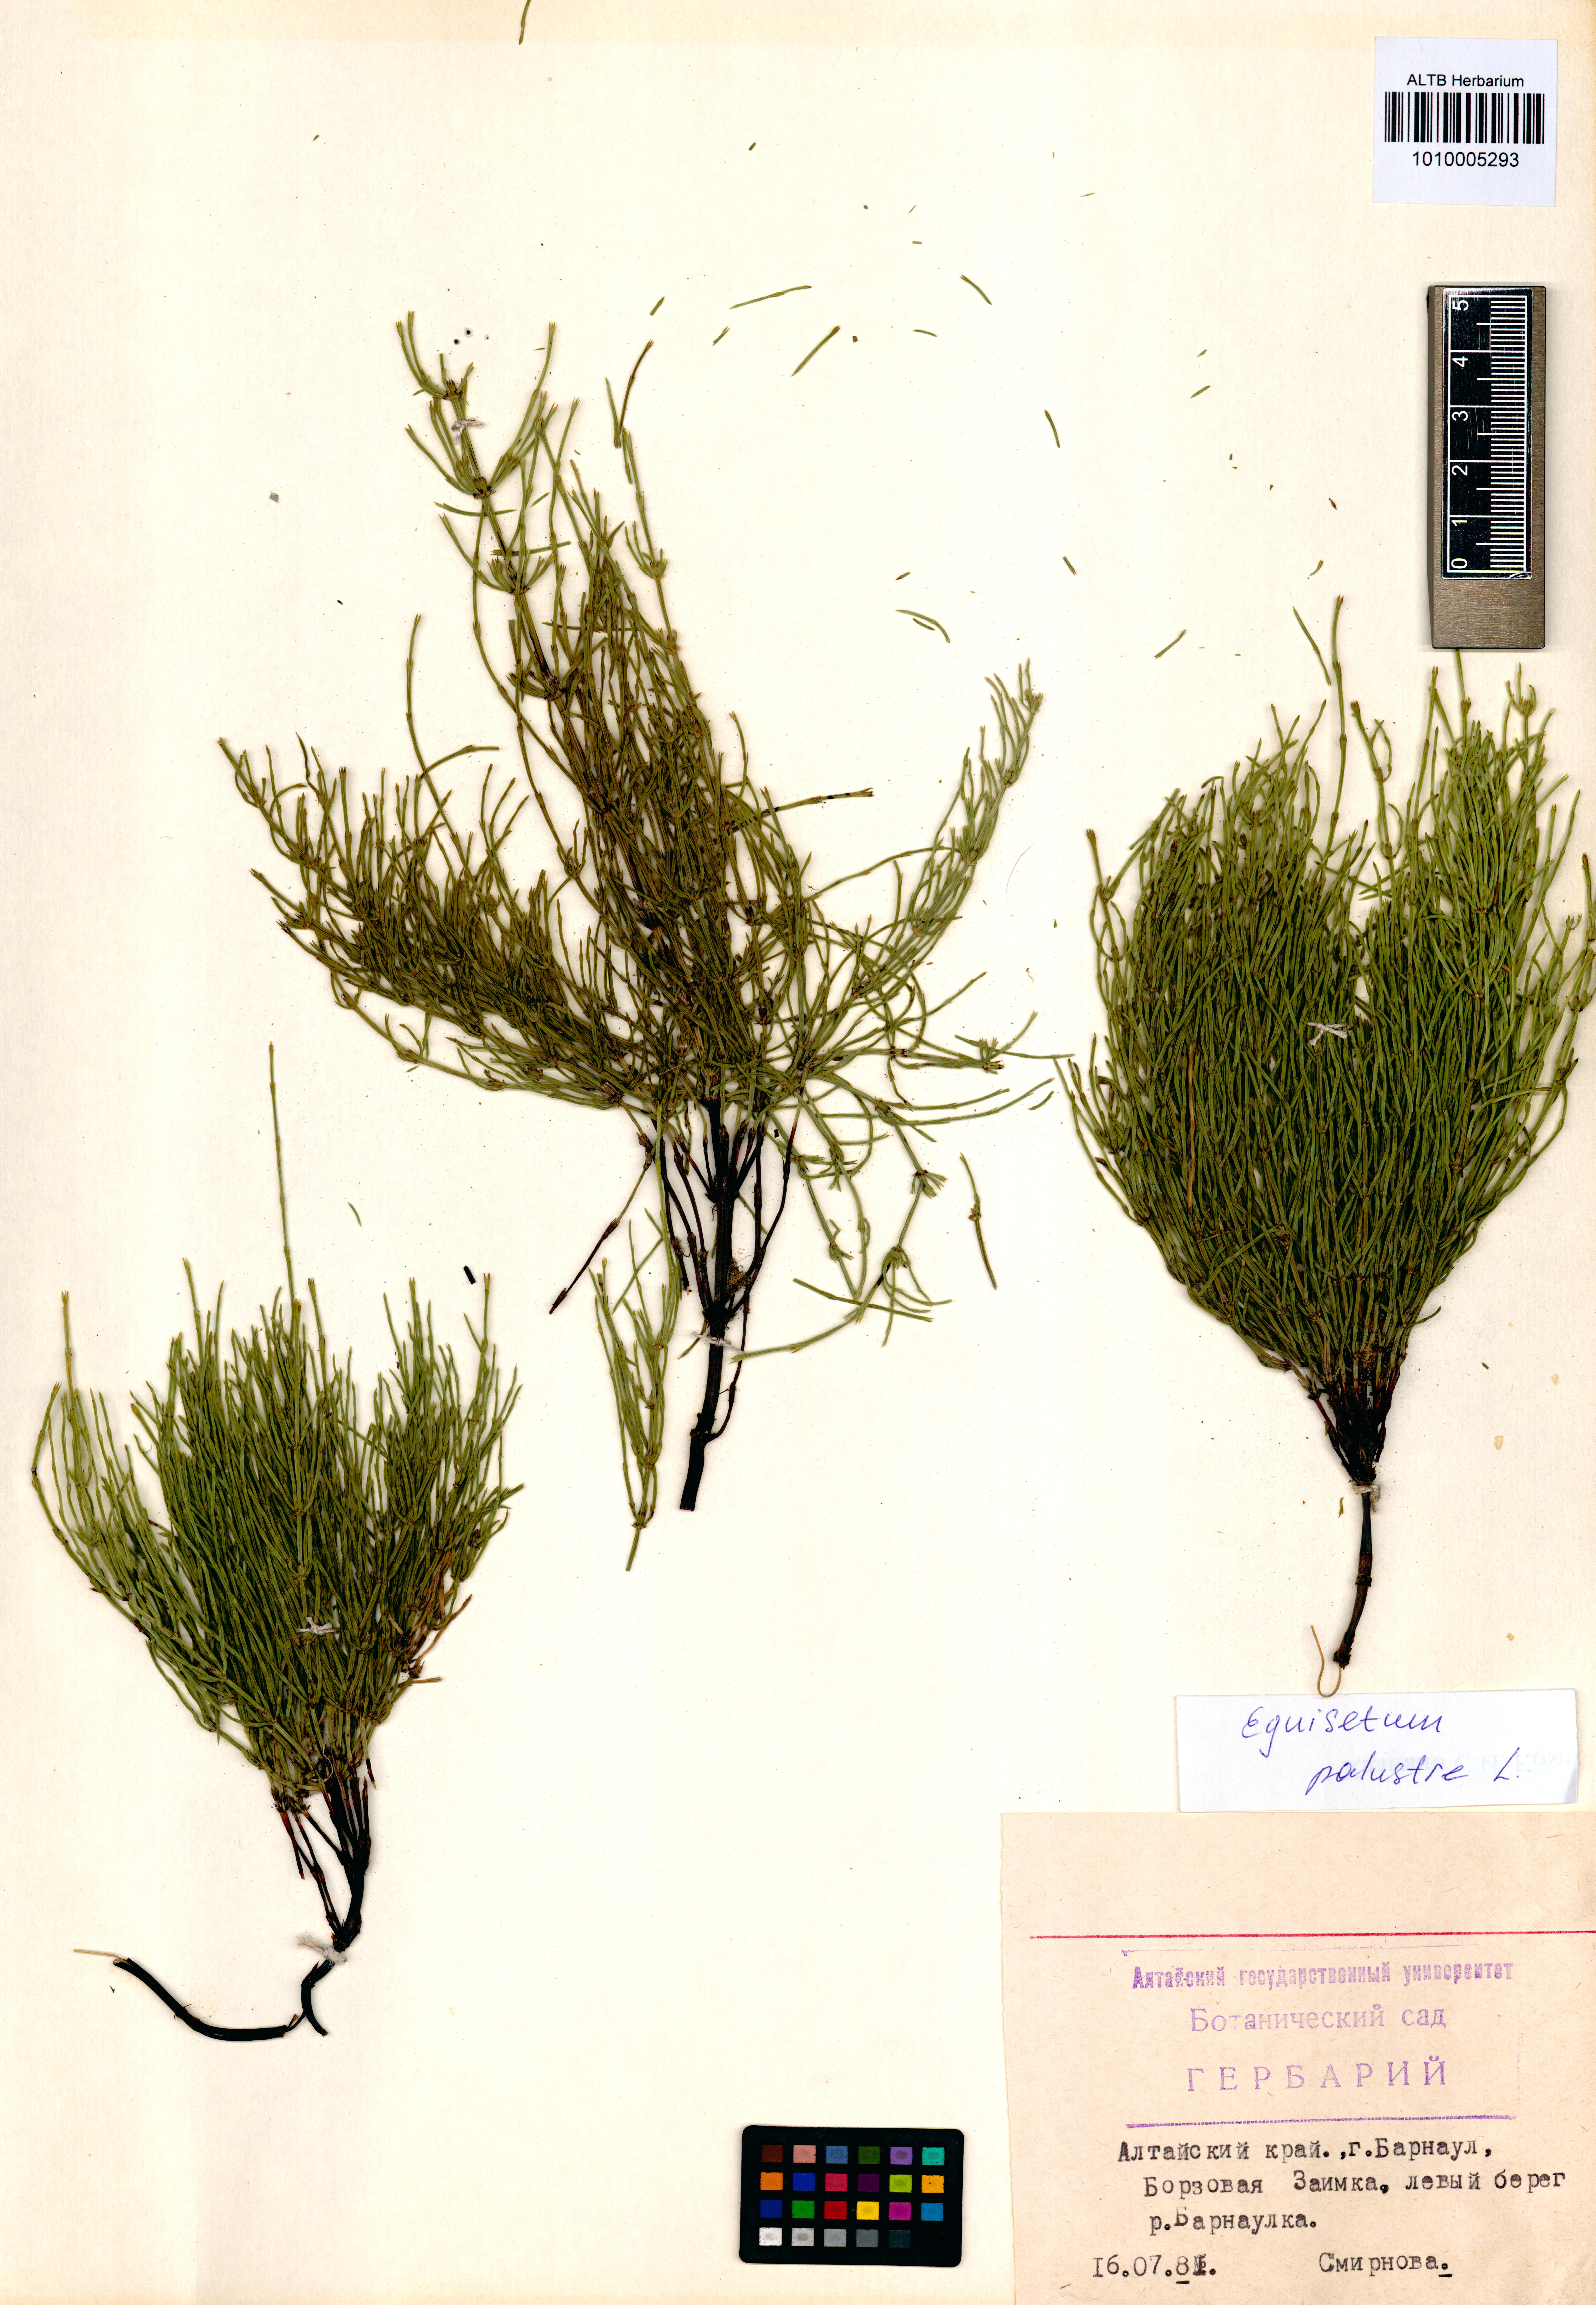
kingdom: Plantae
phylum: Tracheophyta
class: Polypodiopsida
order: Equisetales
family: Equisetaceae
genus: Equisetum
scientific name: Equisetum palustre
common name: Marsh horsetail
